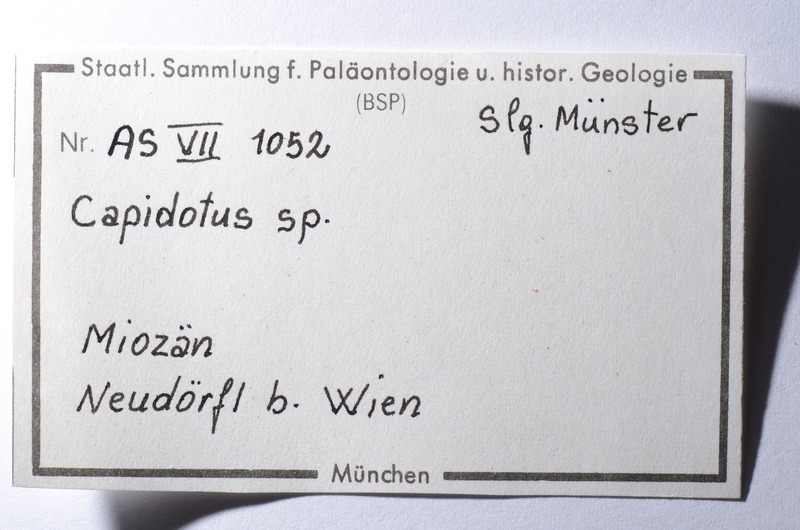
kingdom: Animalia
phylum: Chordata
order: Cypriniformes
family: Cyprinidae
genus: Capitodus
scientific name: Capitodus
